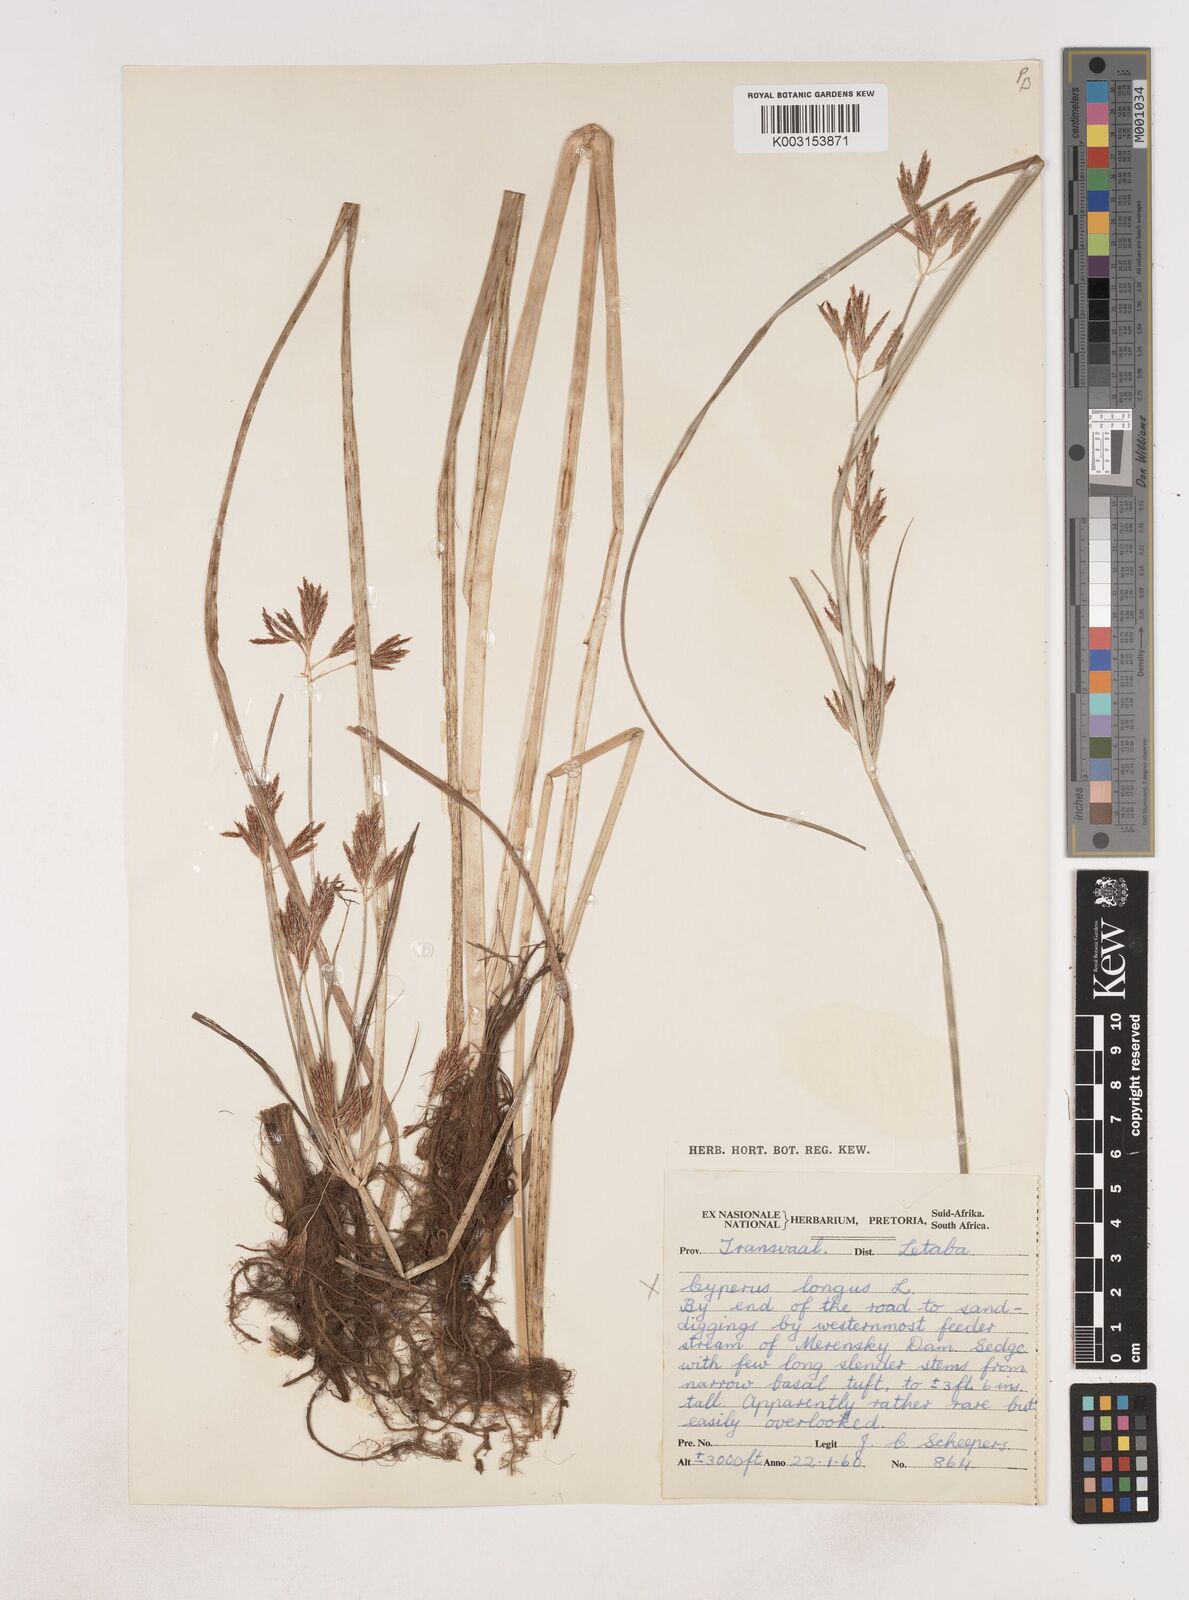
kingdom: Plantae
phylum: Tracheophyta
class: Liliopsida
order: Poales
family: Cyperaceae
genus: Cyperus
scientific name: Cyperus
